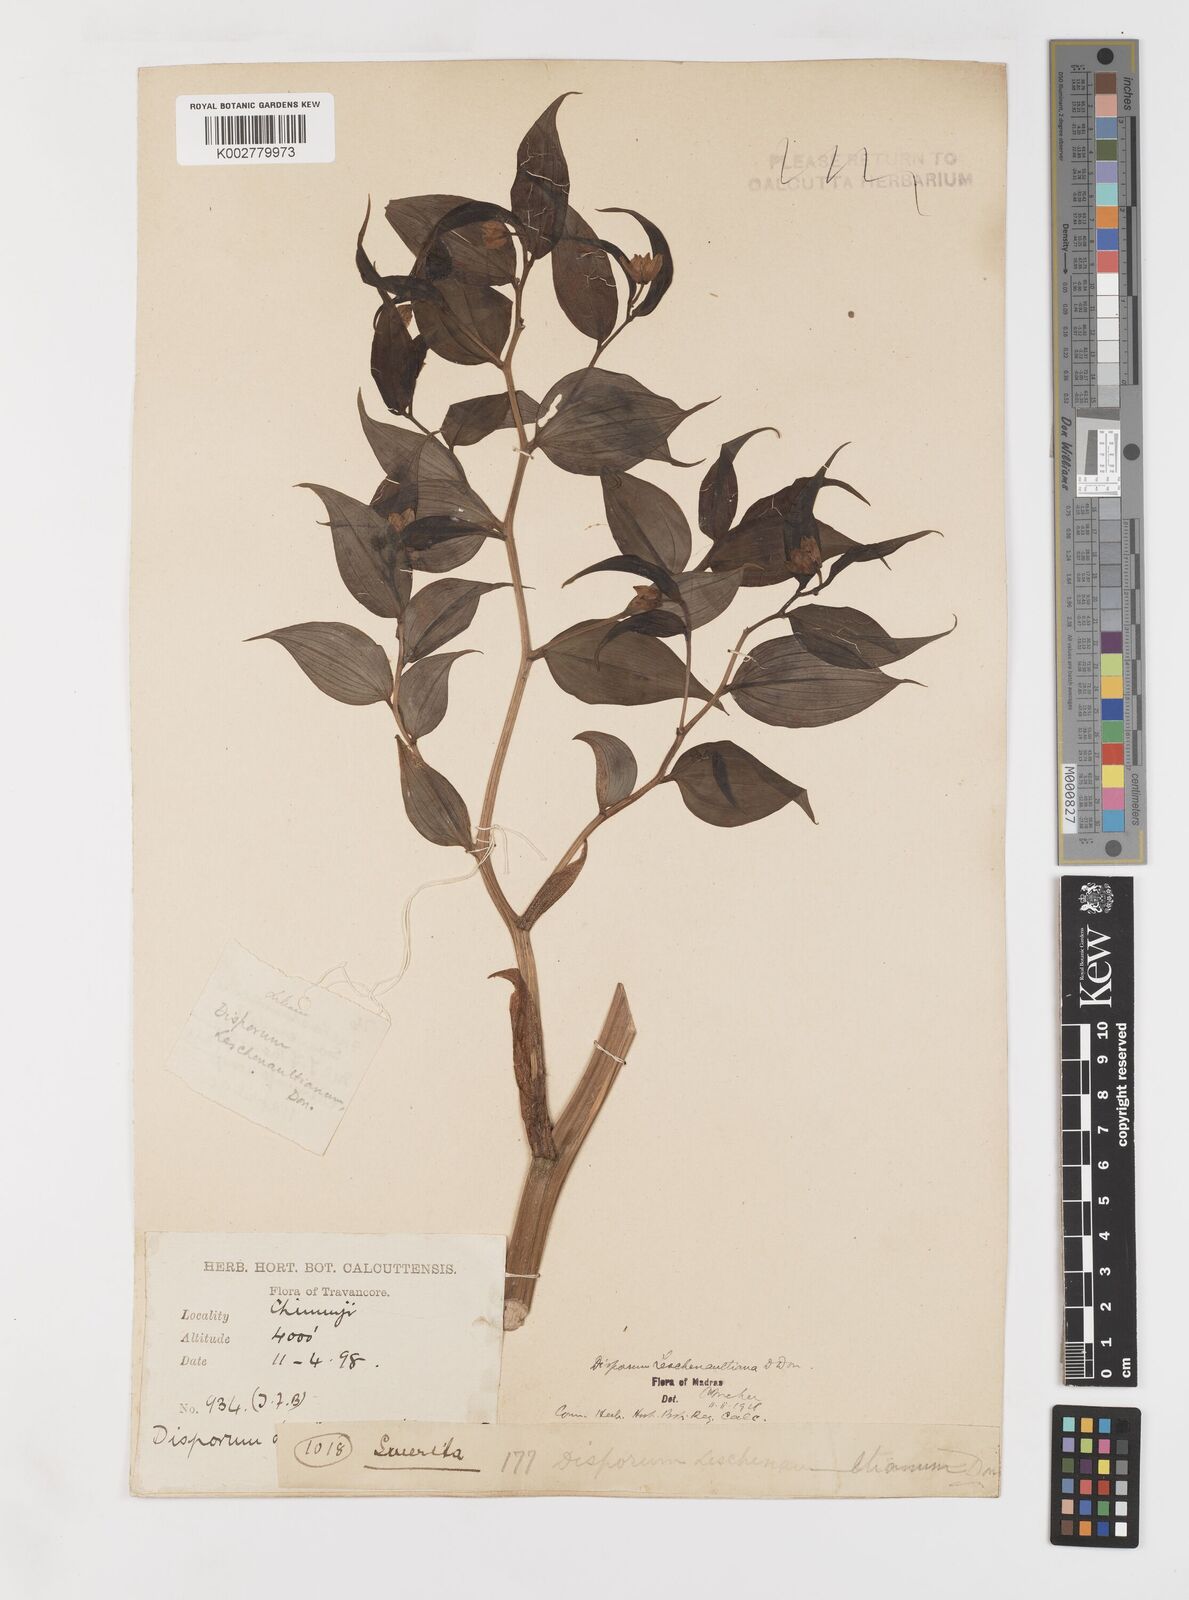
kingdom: Plantae
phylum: Tracheophyta
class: Liliopsida
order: Liliales
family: Colchicaceae
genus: Disporum
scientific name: Disporum cantoniense
